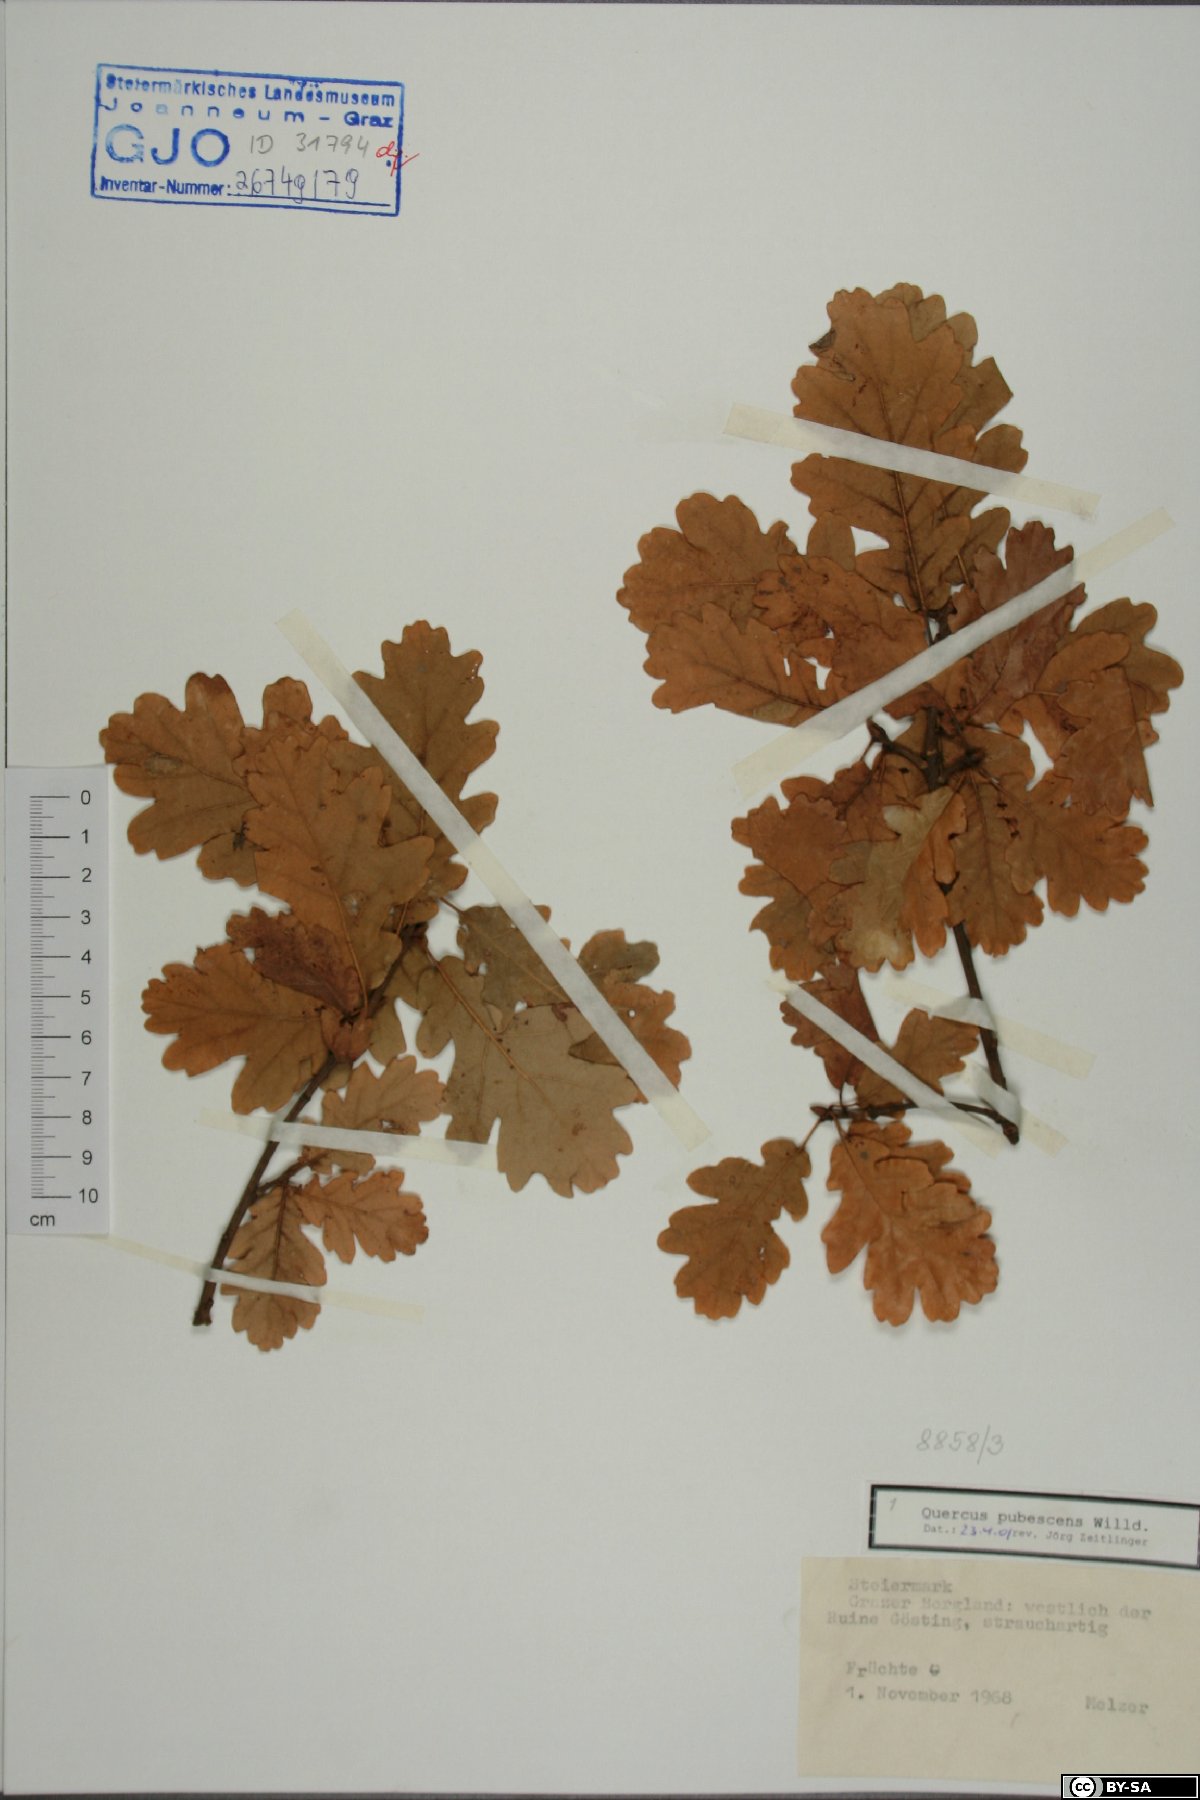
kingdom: Plantae
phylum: Tracheophyta
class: Magnoliopsida
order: Fagales
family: Fagaceae
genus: Quercus
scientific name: Quercus pubescens
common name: Downy oak
